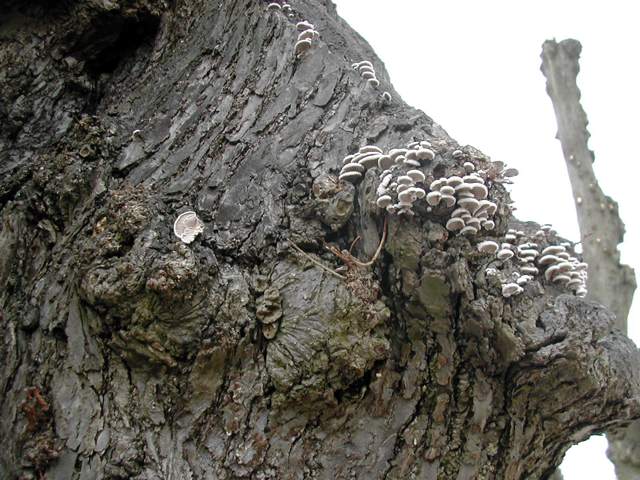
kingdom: Fungi
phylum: Basidiomycota
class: Agaricomycetes
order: Agaricales
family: Schizophyllaceae
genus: Schizophyllum
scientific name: Schizophyllum commune
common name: kløvblad
